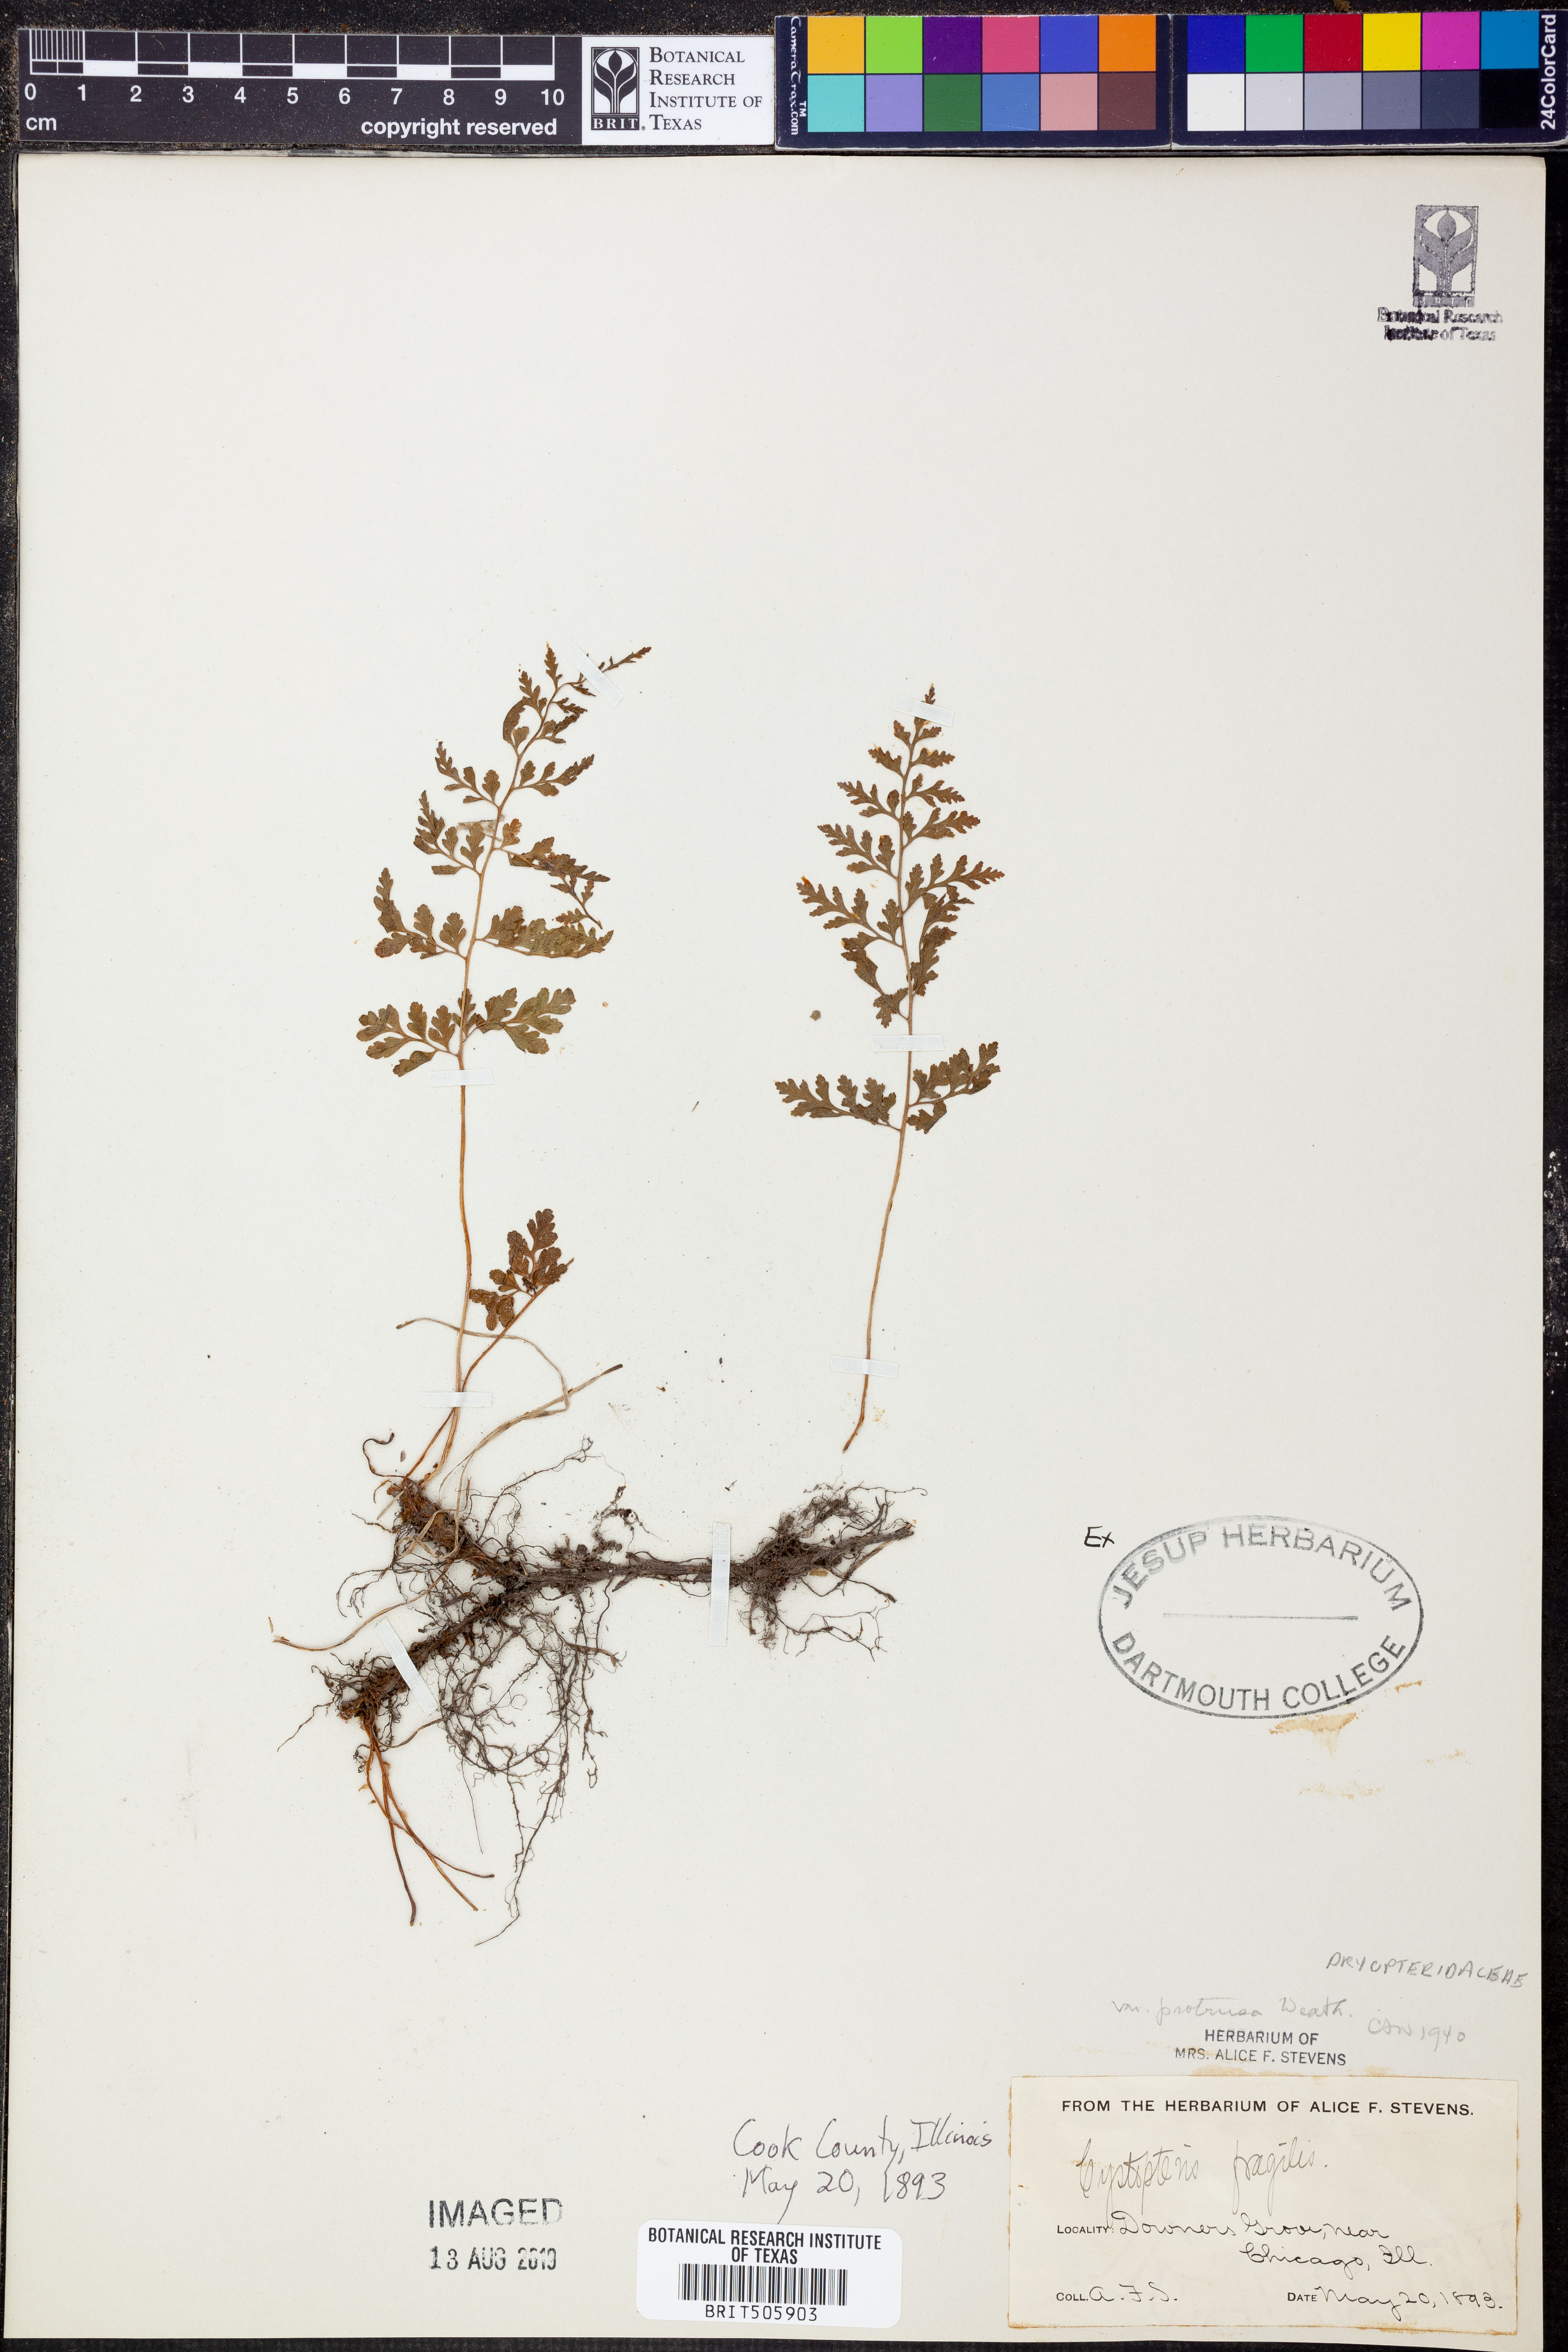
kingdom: Plantae
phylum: Tracheophyta
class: Polypodiopsida
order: Polypodiales
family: Cystopteridaceae
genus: Cystopteris
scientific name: Cystopteris fragilis
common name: Brittle bladder fern
